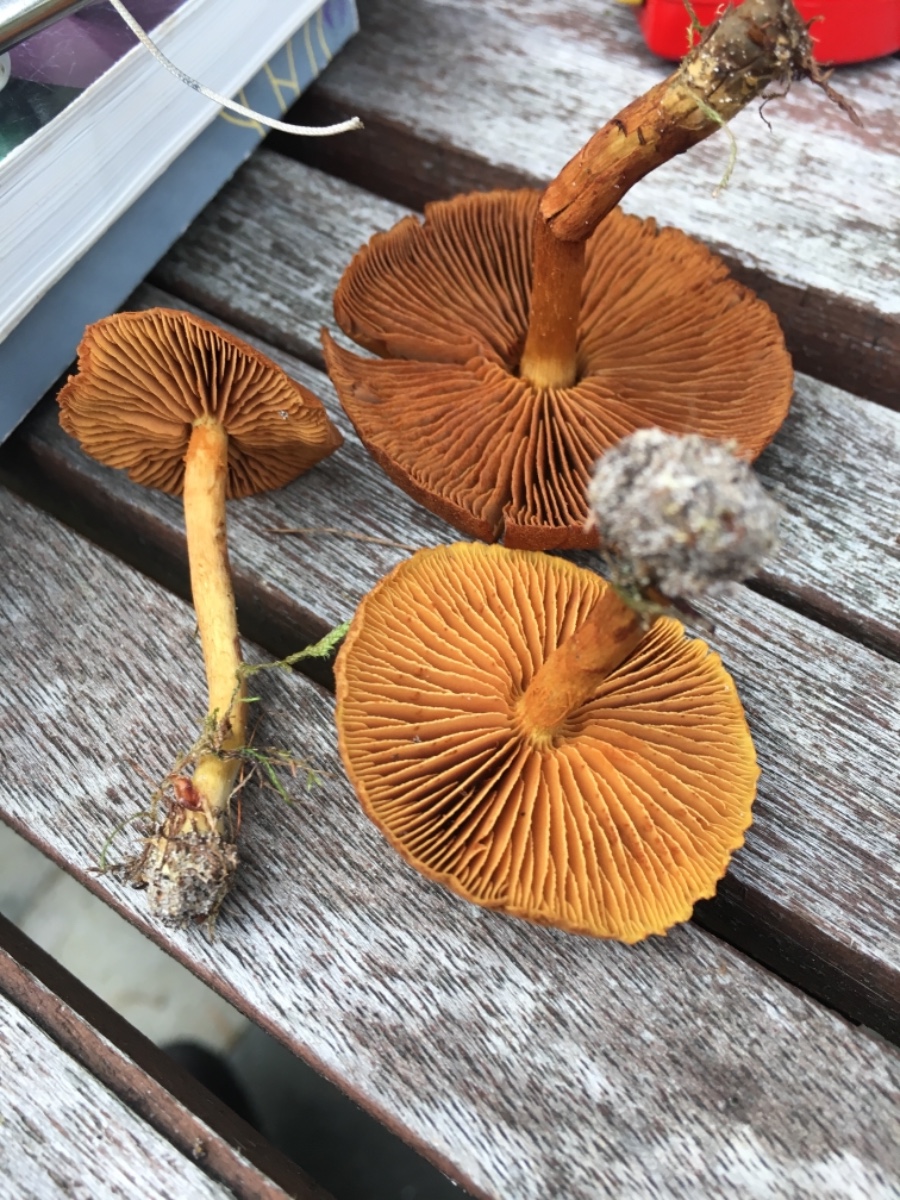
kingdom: Fungi
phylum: Basidiomycota
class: Agaricomycetes
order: Agaricales
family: Cortinariaceae
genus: Cortinarius
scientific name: Cortinarius uliginosus
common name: mose-slørhat
